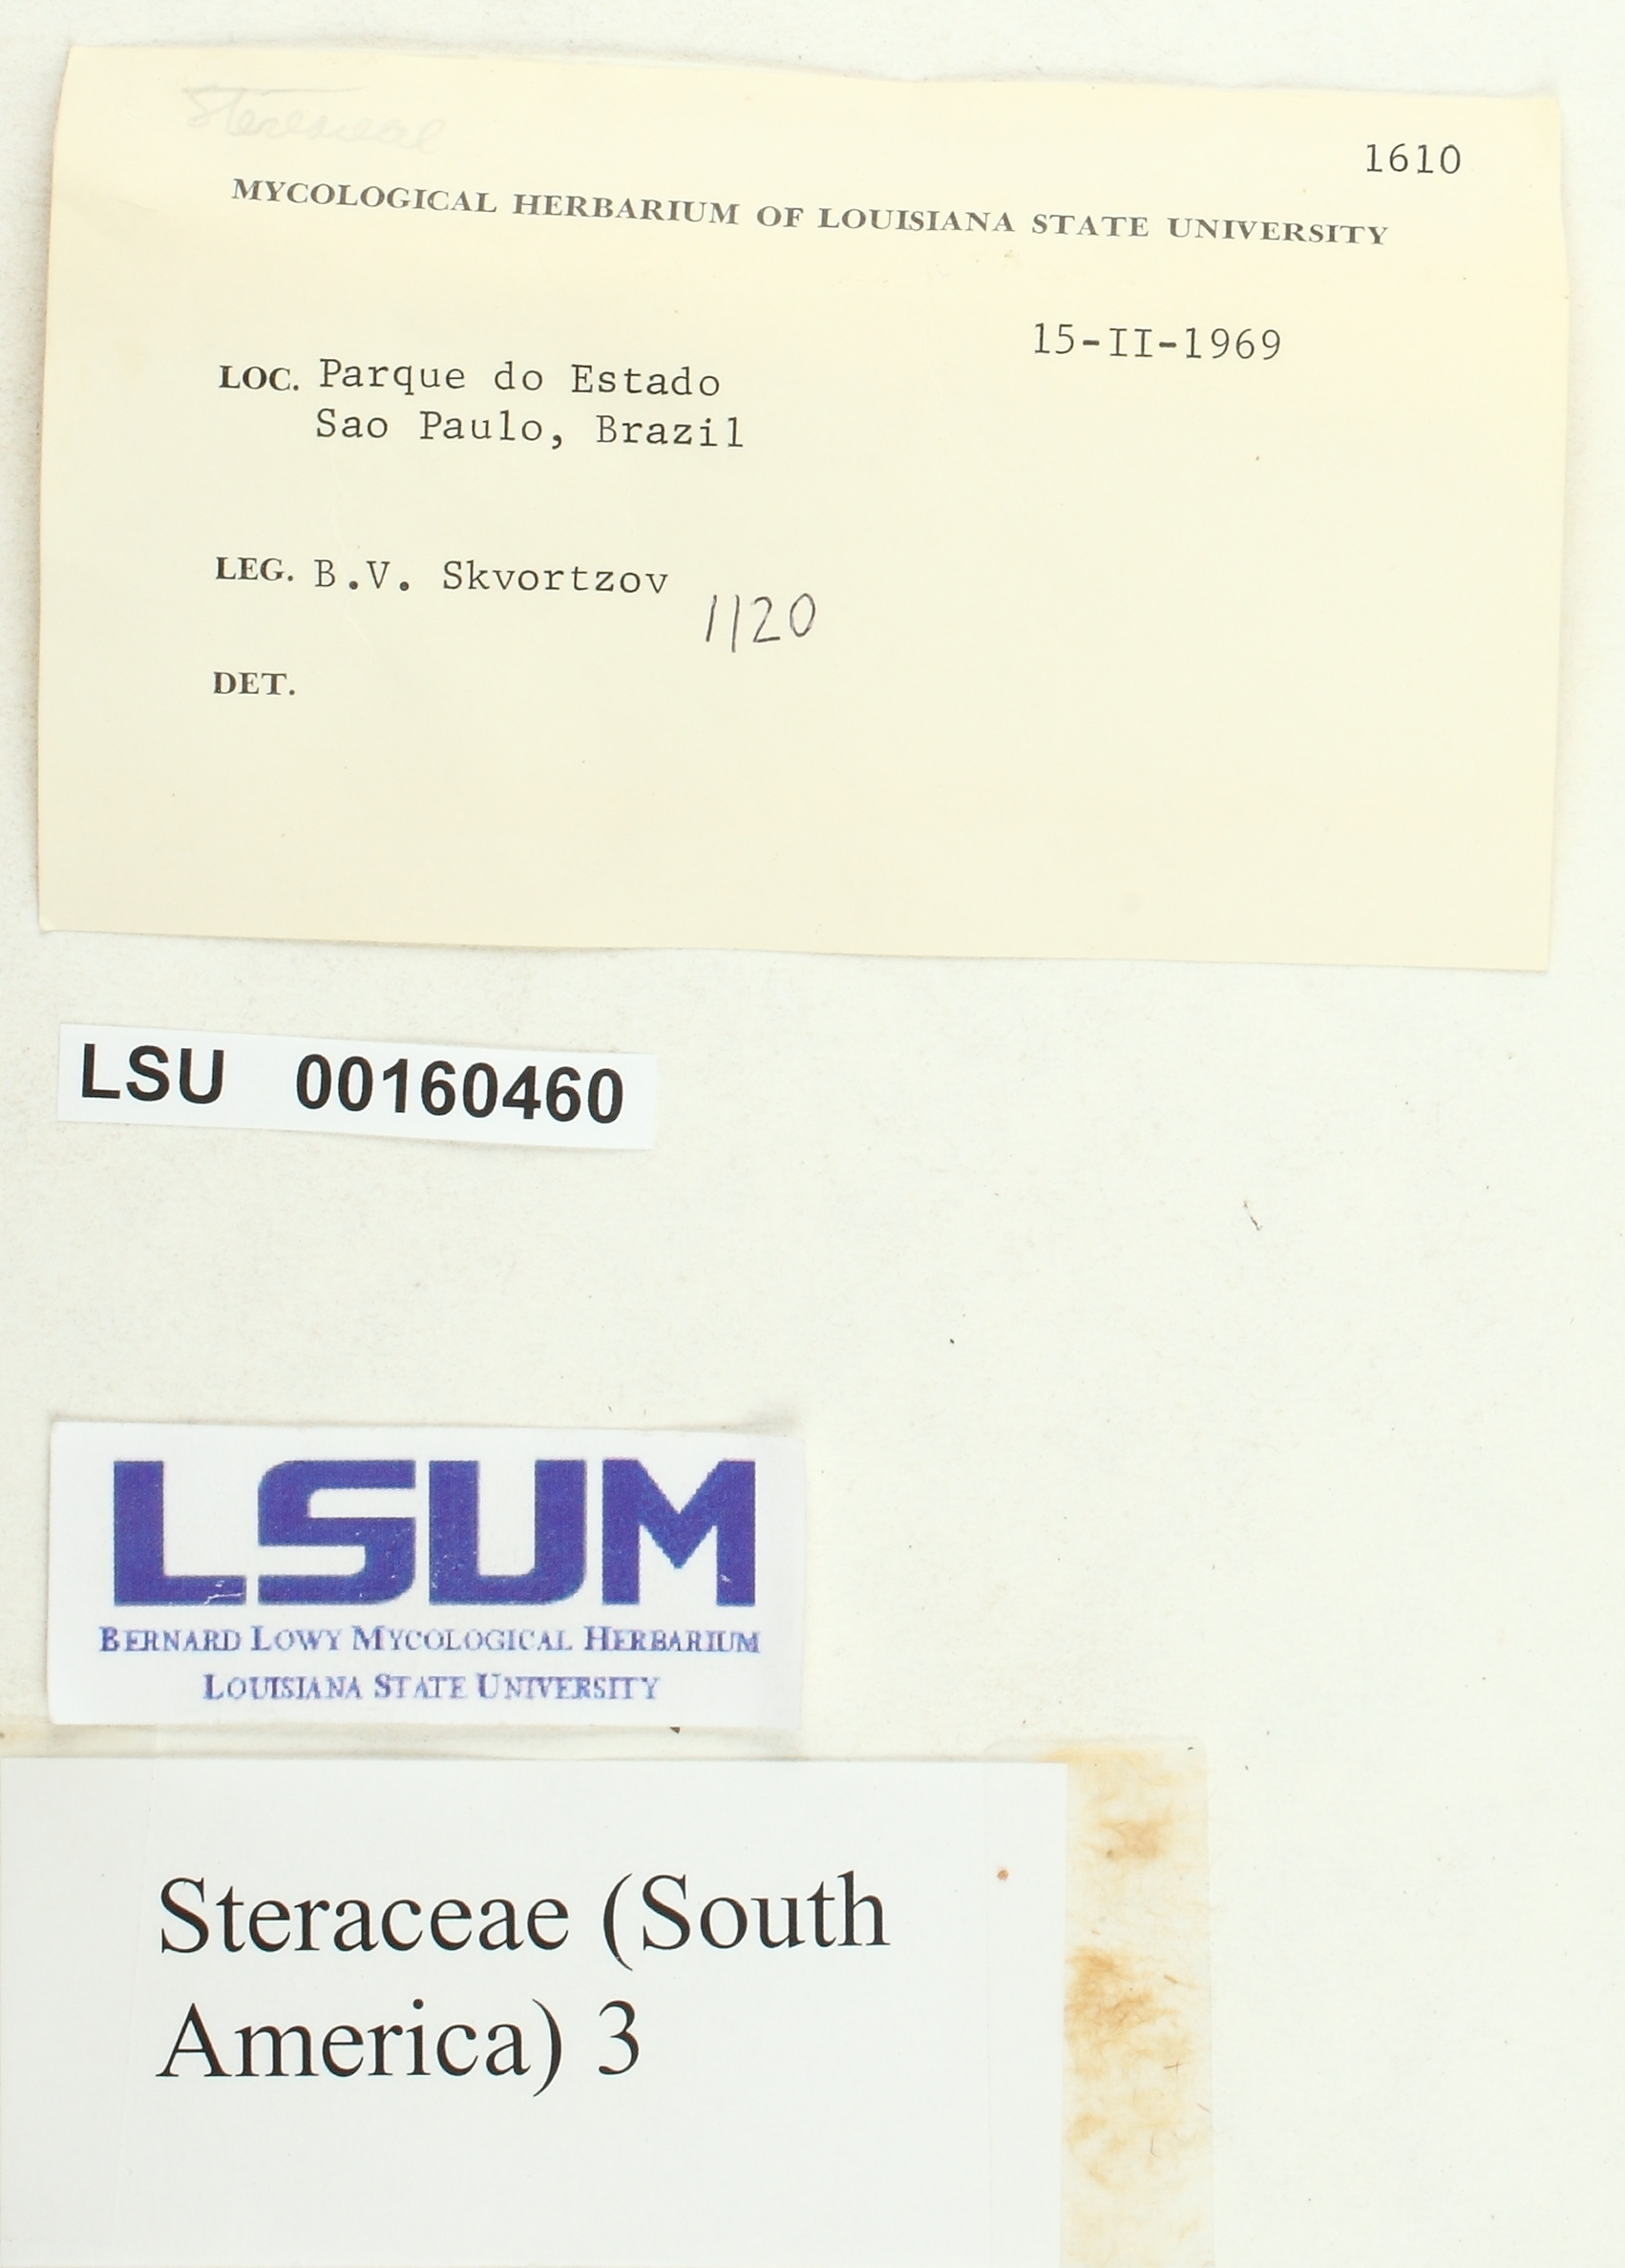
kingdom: Fungi
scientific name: Fungi
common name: Fungi
